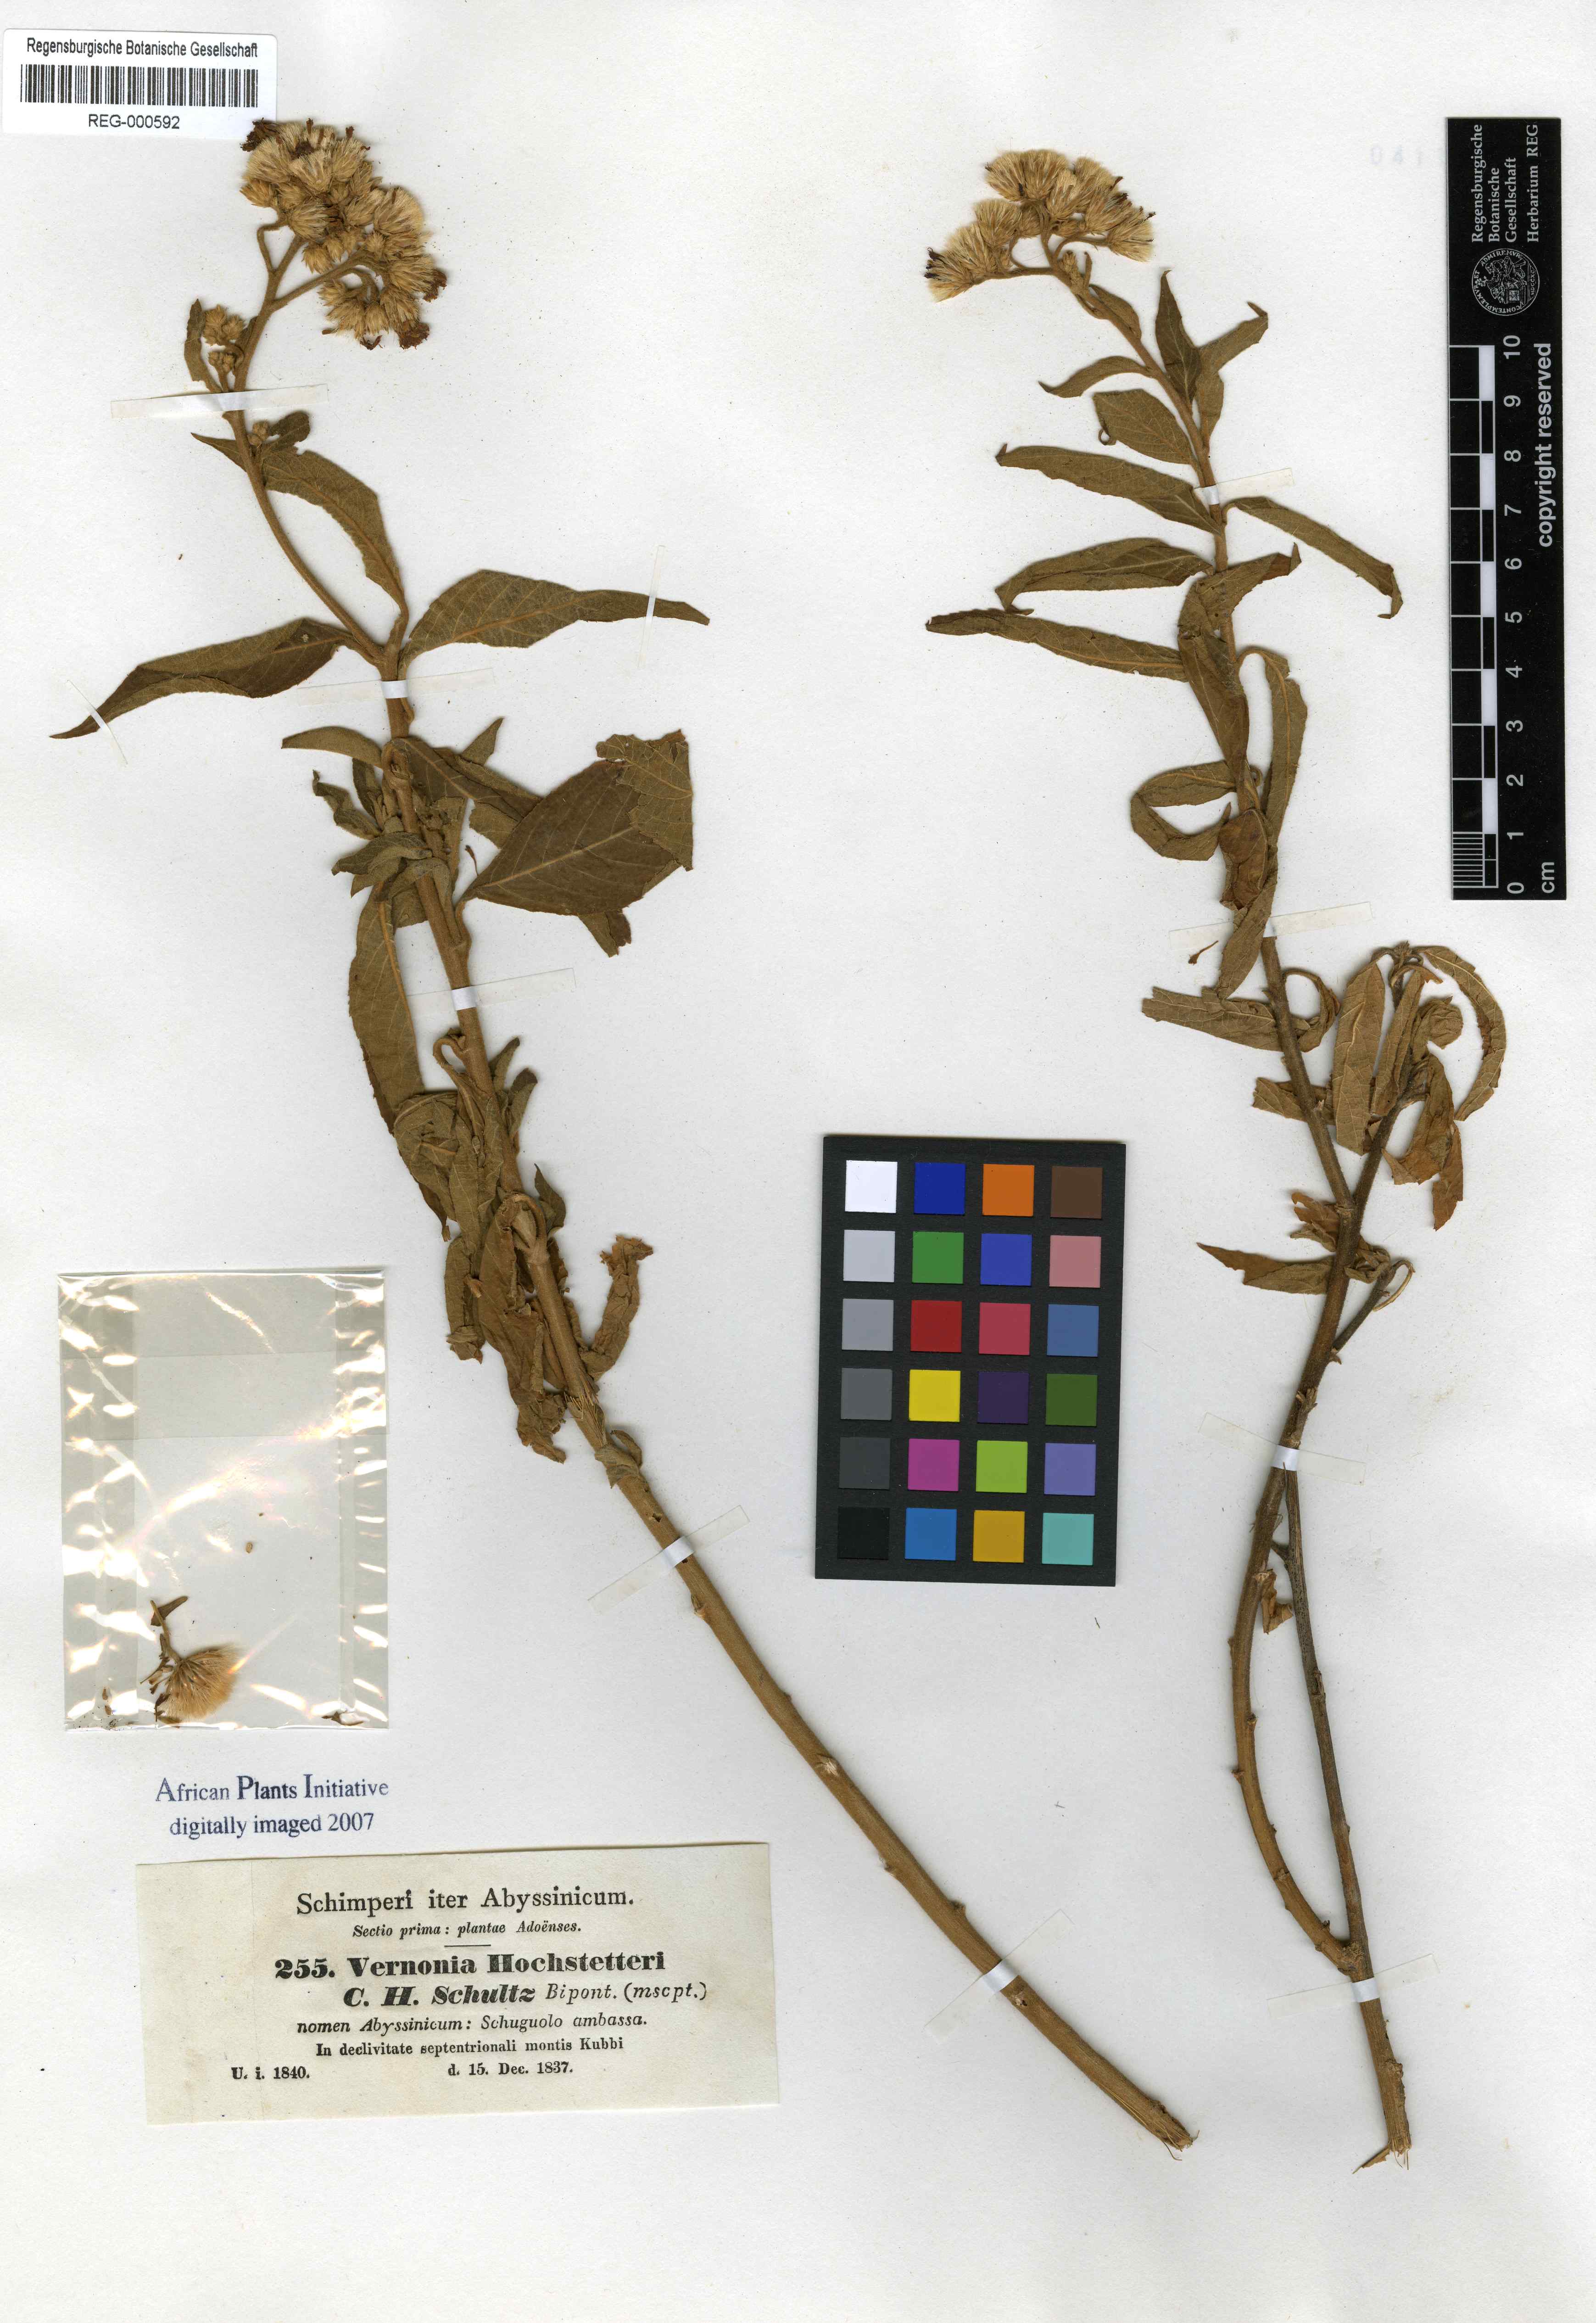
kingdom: Plantae
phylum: Tracheophyta
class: Magnoliopsida
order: Asterales
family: Asteraceae
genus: Vernonia
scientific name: Vernonia hochstetteri
